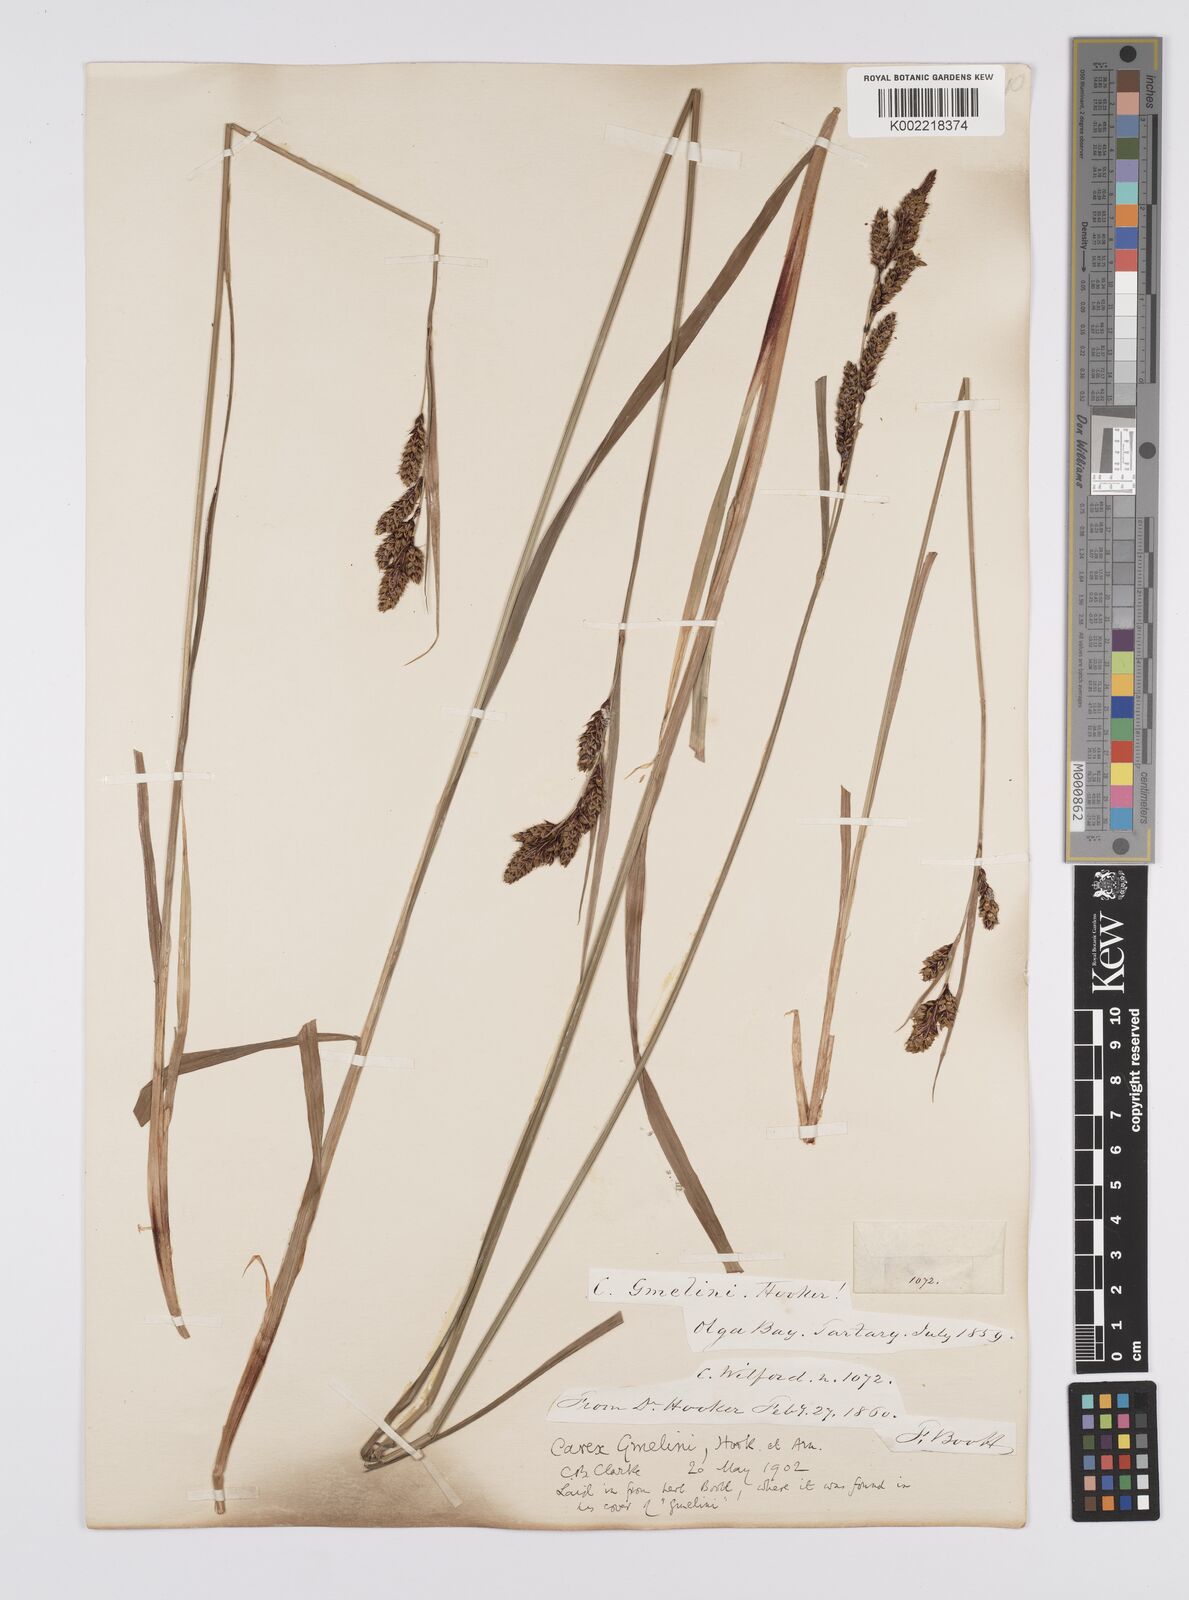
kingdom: Plantae
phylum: Tracheophyta
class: Liliopsida
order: Poales
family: Cyperaceae
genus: Carex
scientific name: Carex gmelinii
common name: Gmelin's sedge
